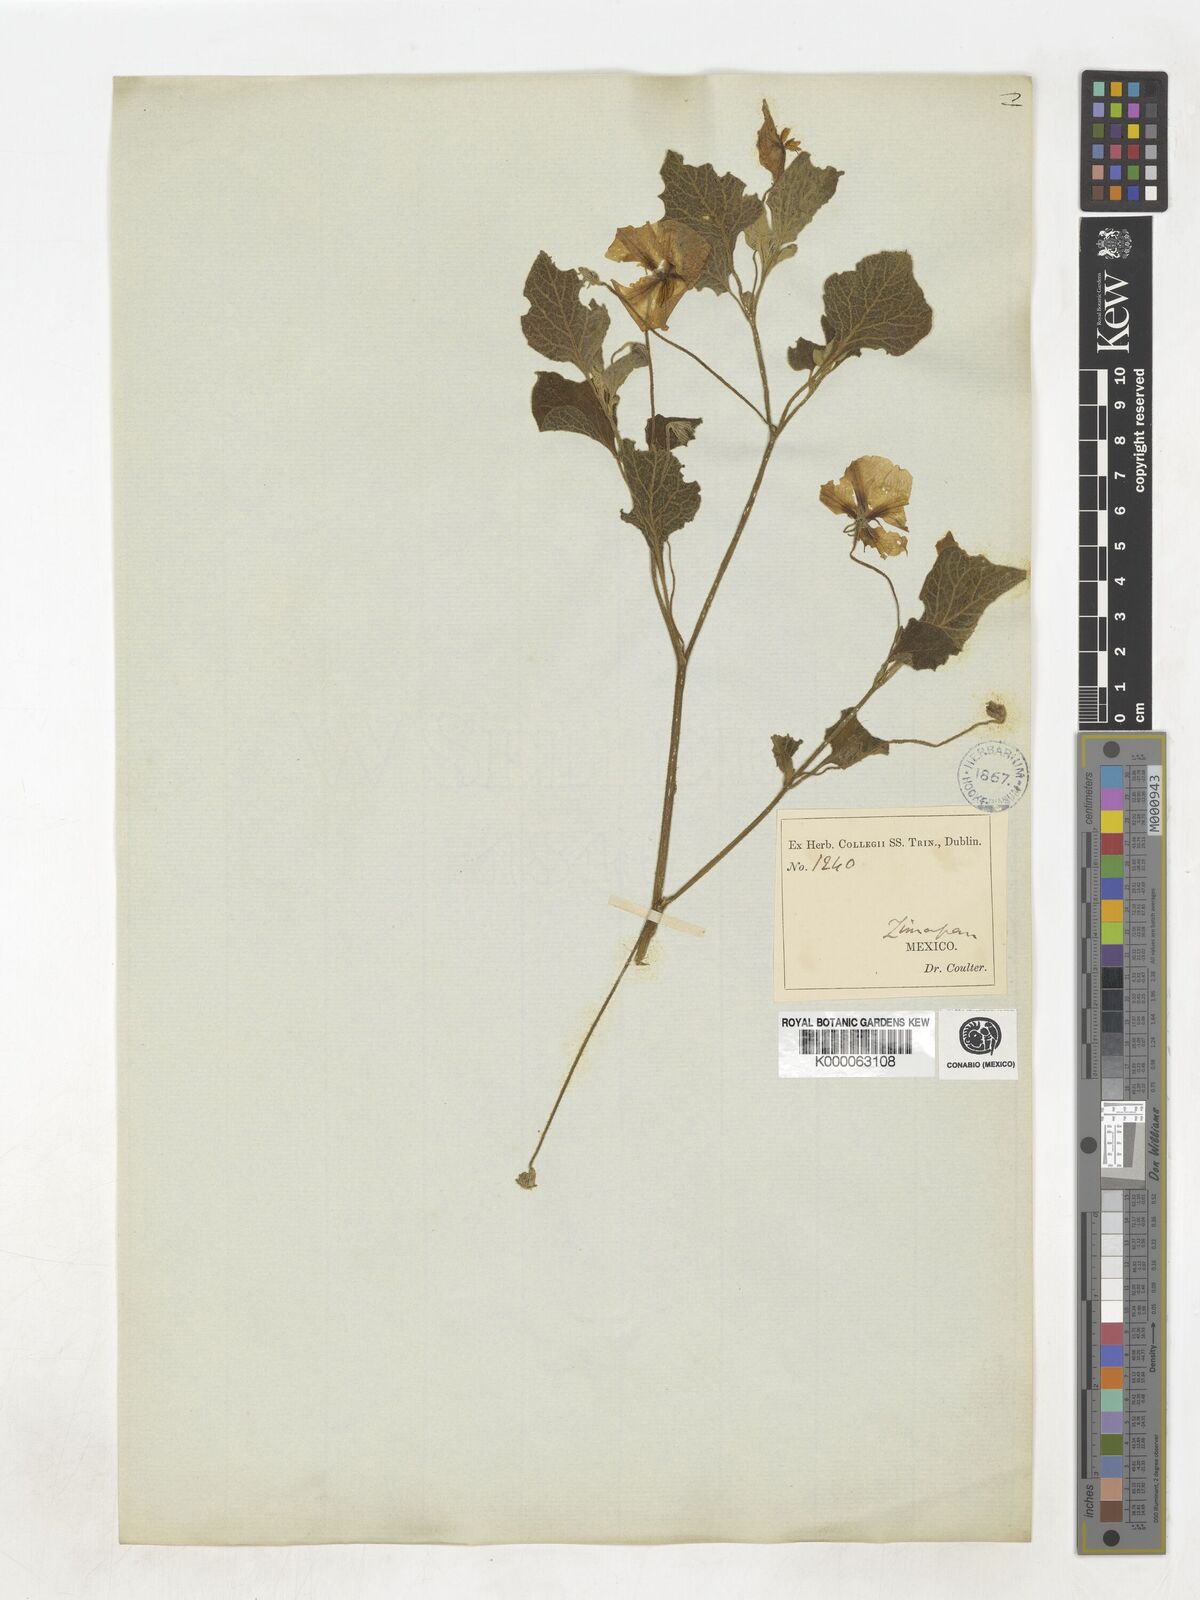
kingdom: Plantae
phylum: Tracheophyta
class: Magnoliopsida
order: Solanales
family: Solanaceae
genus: Lycianthes
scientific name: Lycianthes dejecta
